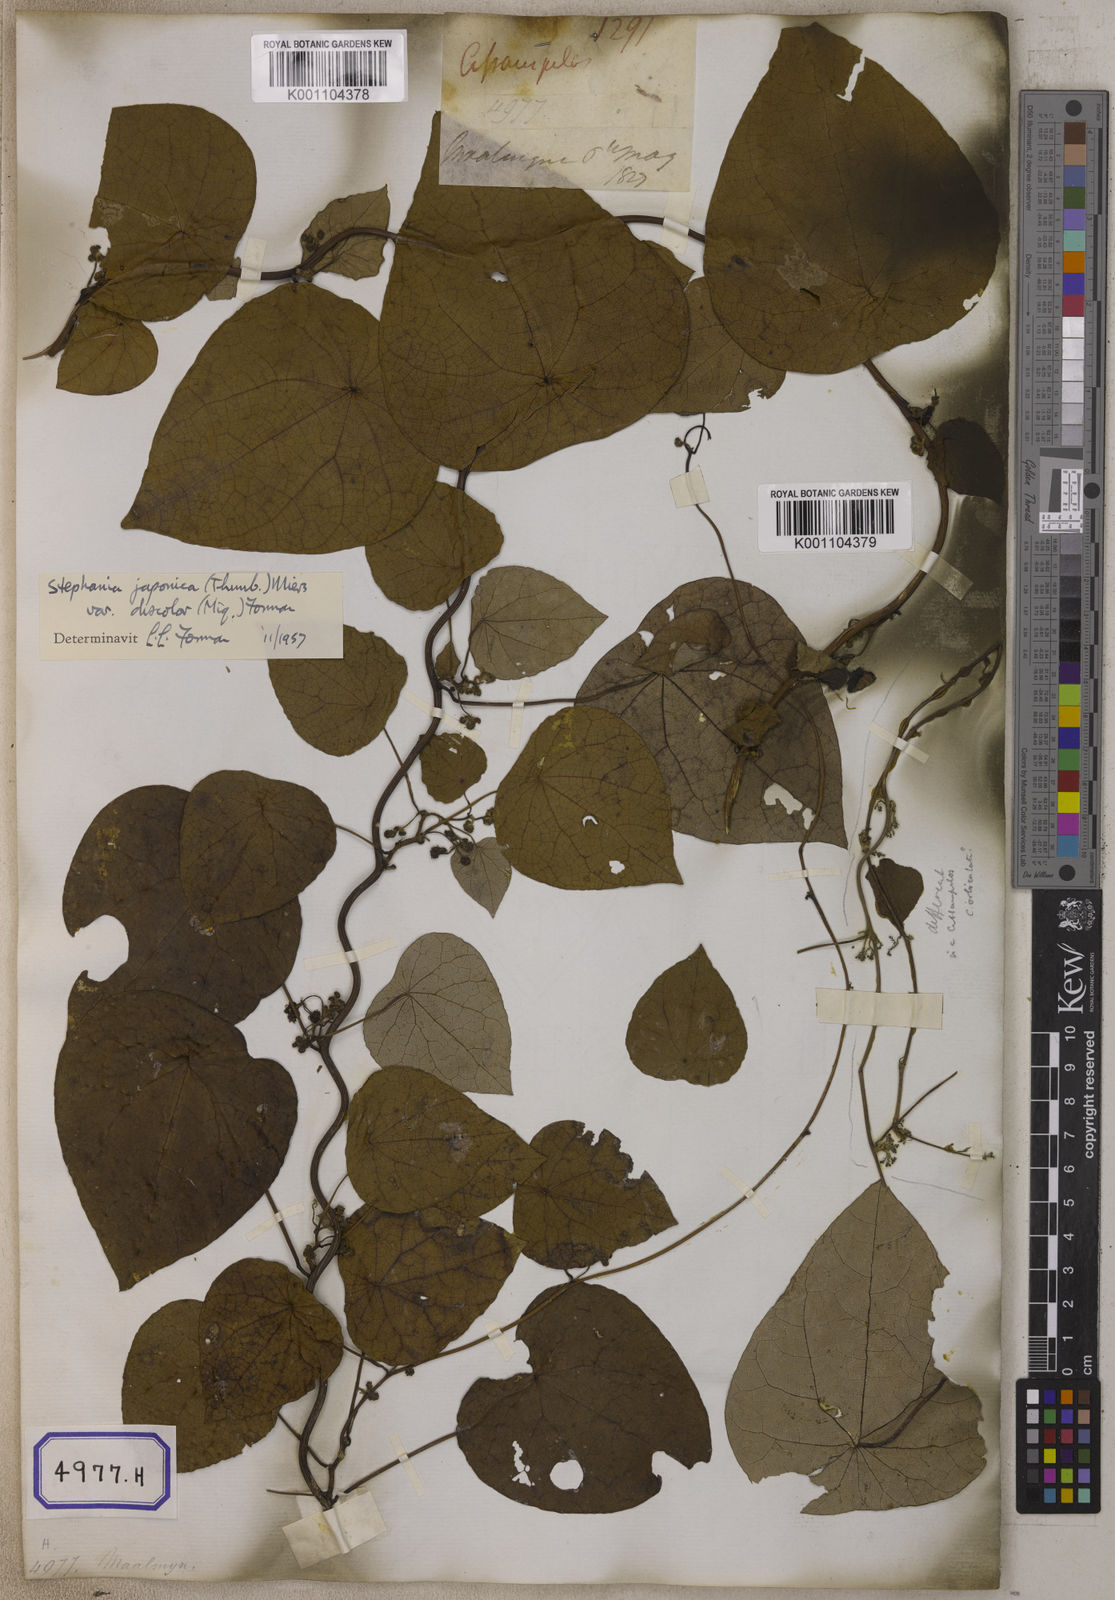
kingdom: Plantae
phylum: Tracheophyta
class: Magnoliopsida
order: Ranunculales
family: Menispermaceae
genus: Stephania
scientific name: Stephania japonica
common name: Snake vine
